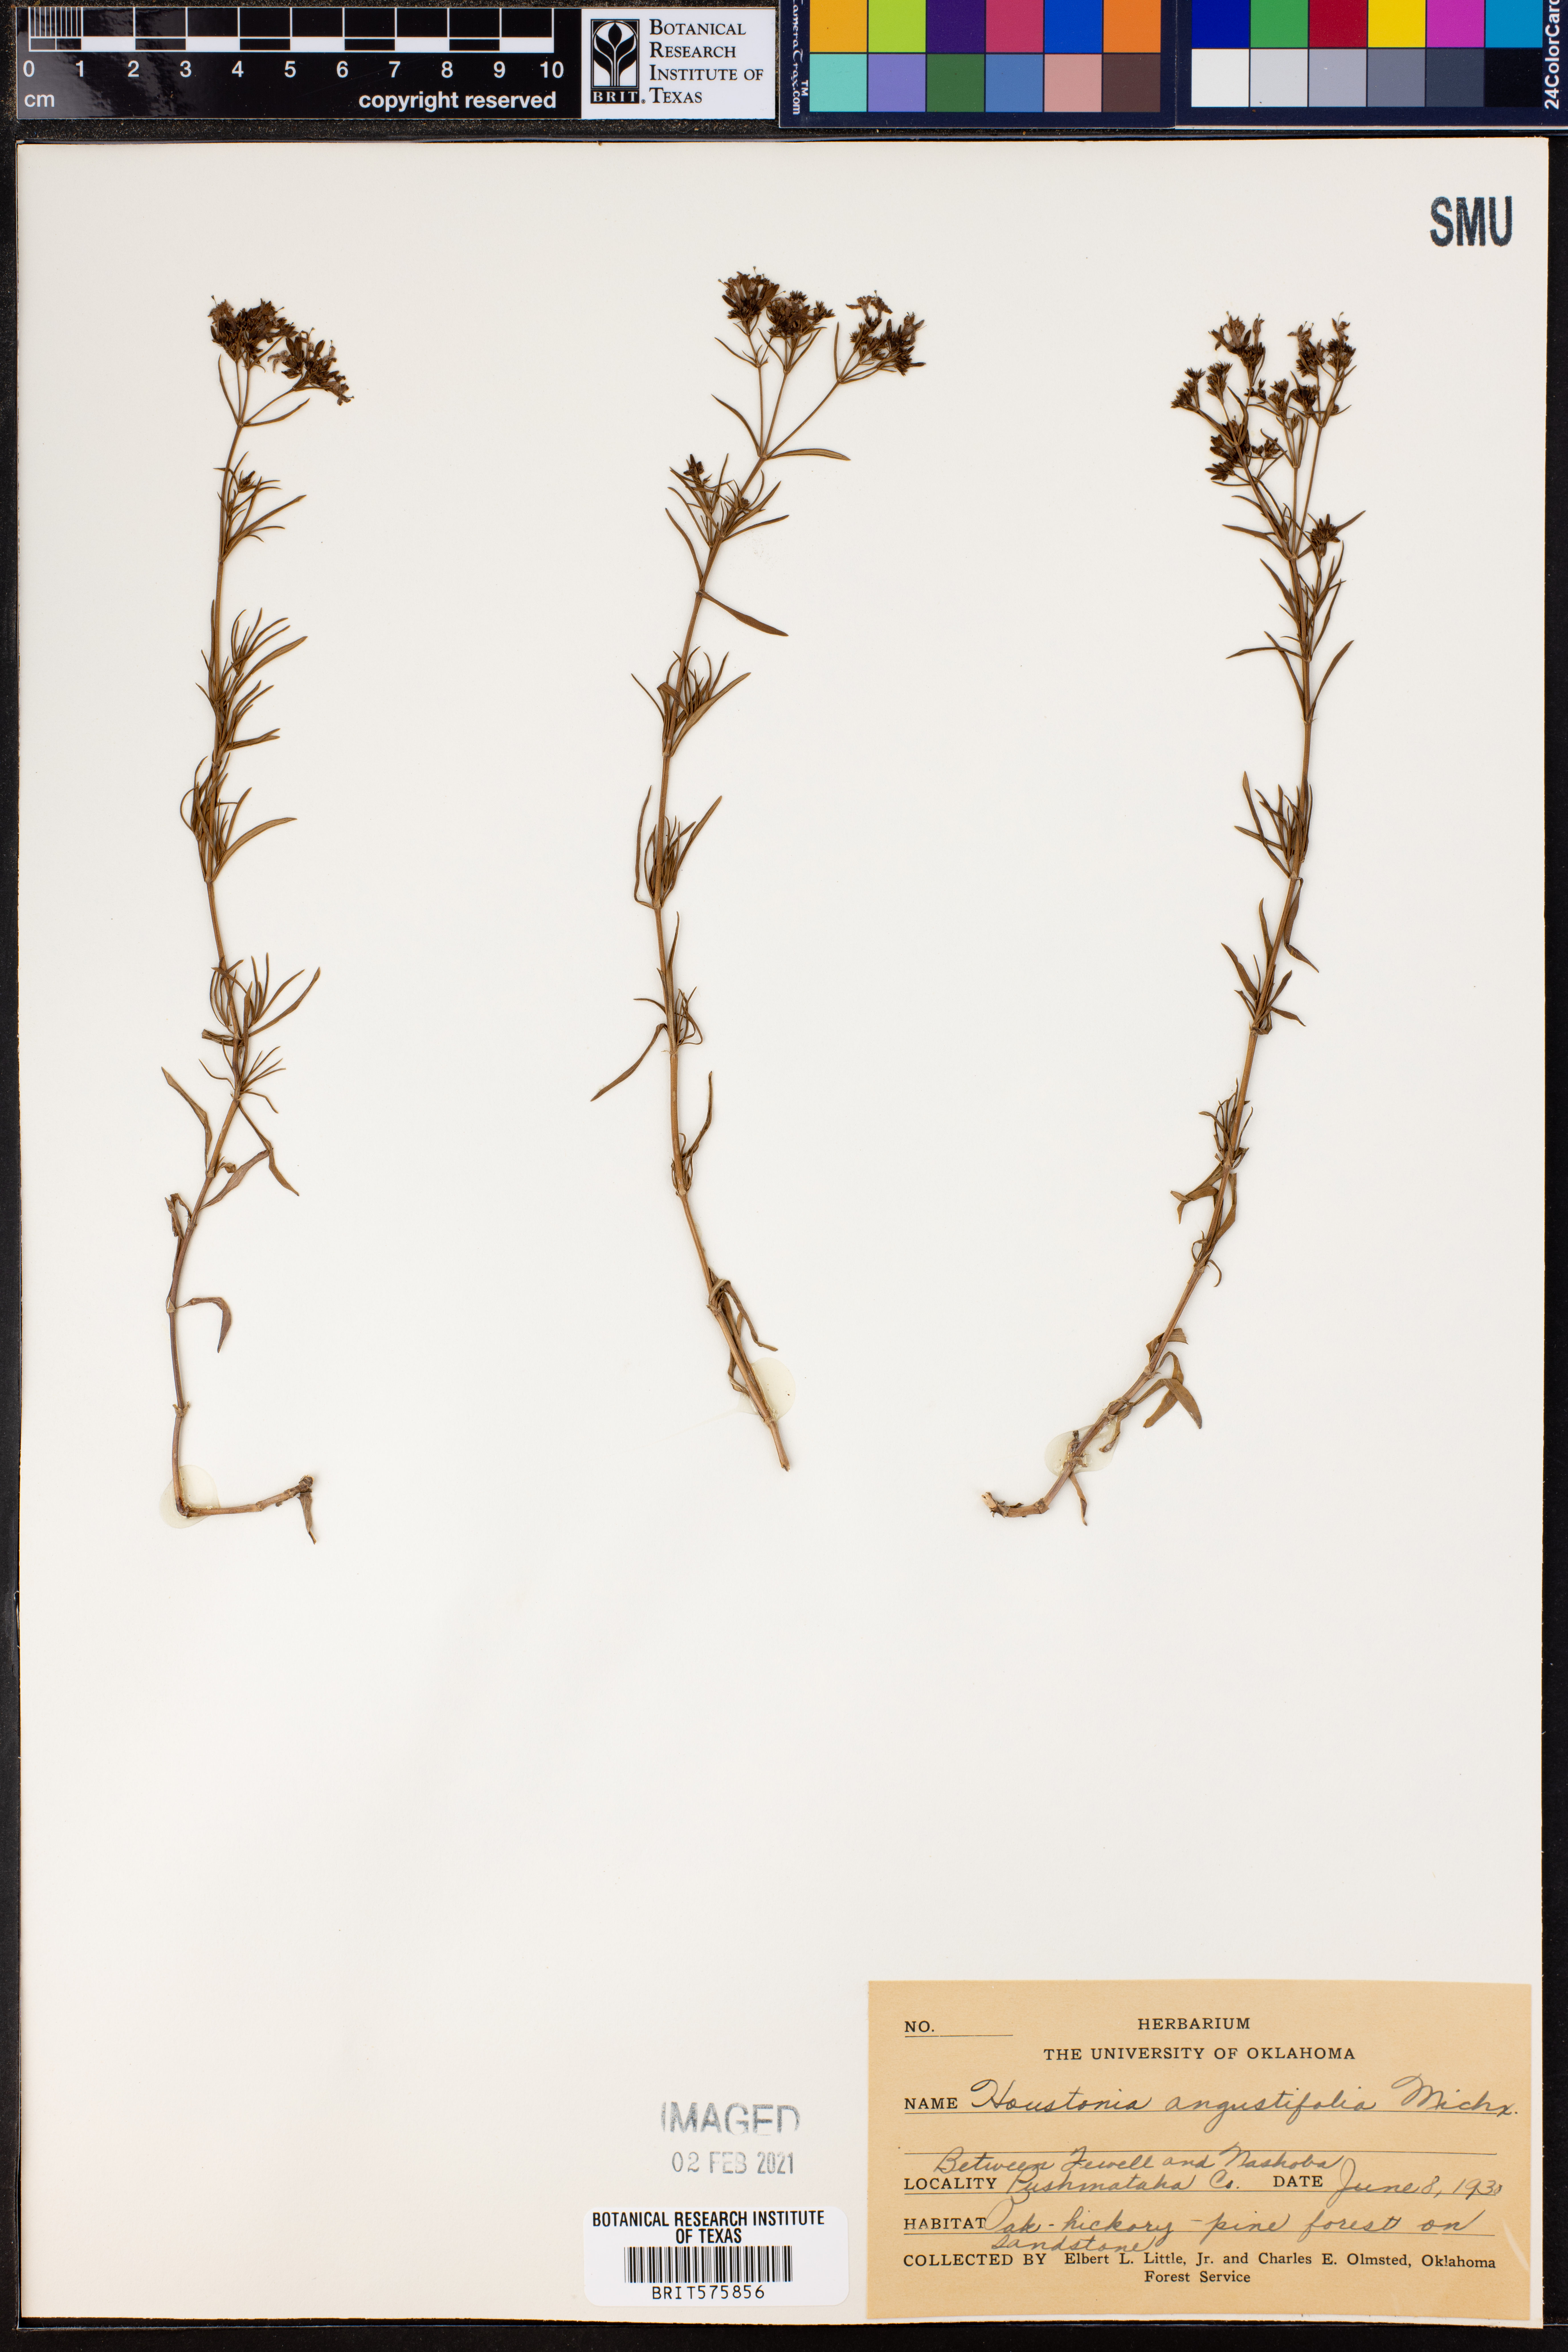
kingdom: Plantae
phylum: Tracheophyta
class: Magnoliopsida
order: Gentianales
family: Rubiaceae
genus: Stenaria
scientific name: Stenaria nigricans
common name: Diamondflowers
